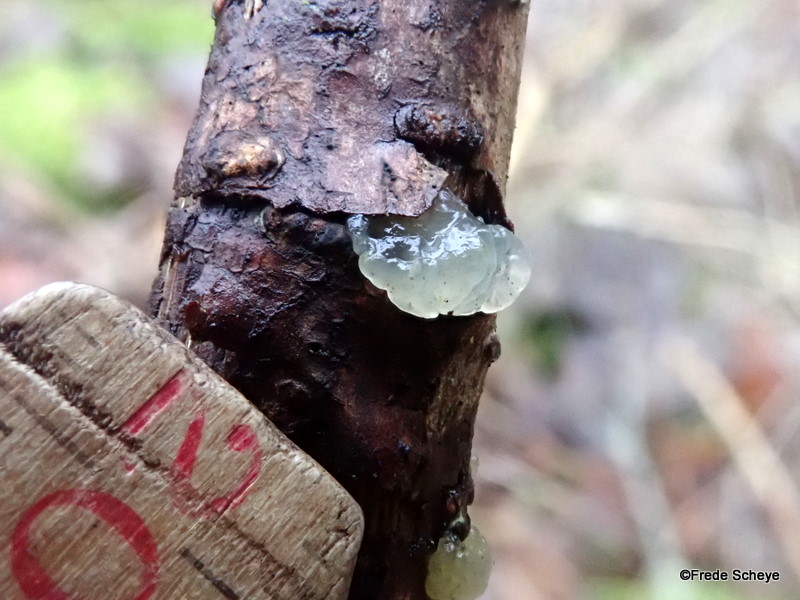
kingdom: Fungi
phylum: Basidiomycota
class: Agaricomycetes
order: Auriculariales
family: Hyaloriaceae
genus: Myxarium
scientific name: Myxarium nucleatum
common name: klar bævretop
